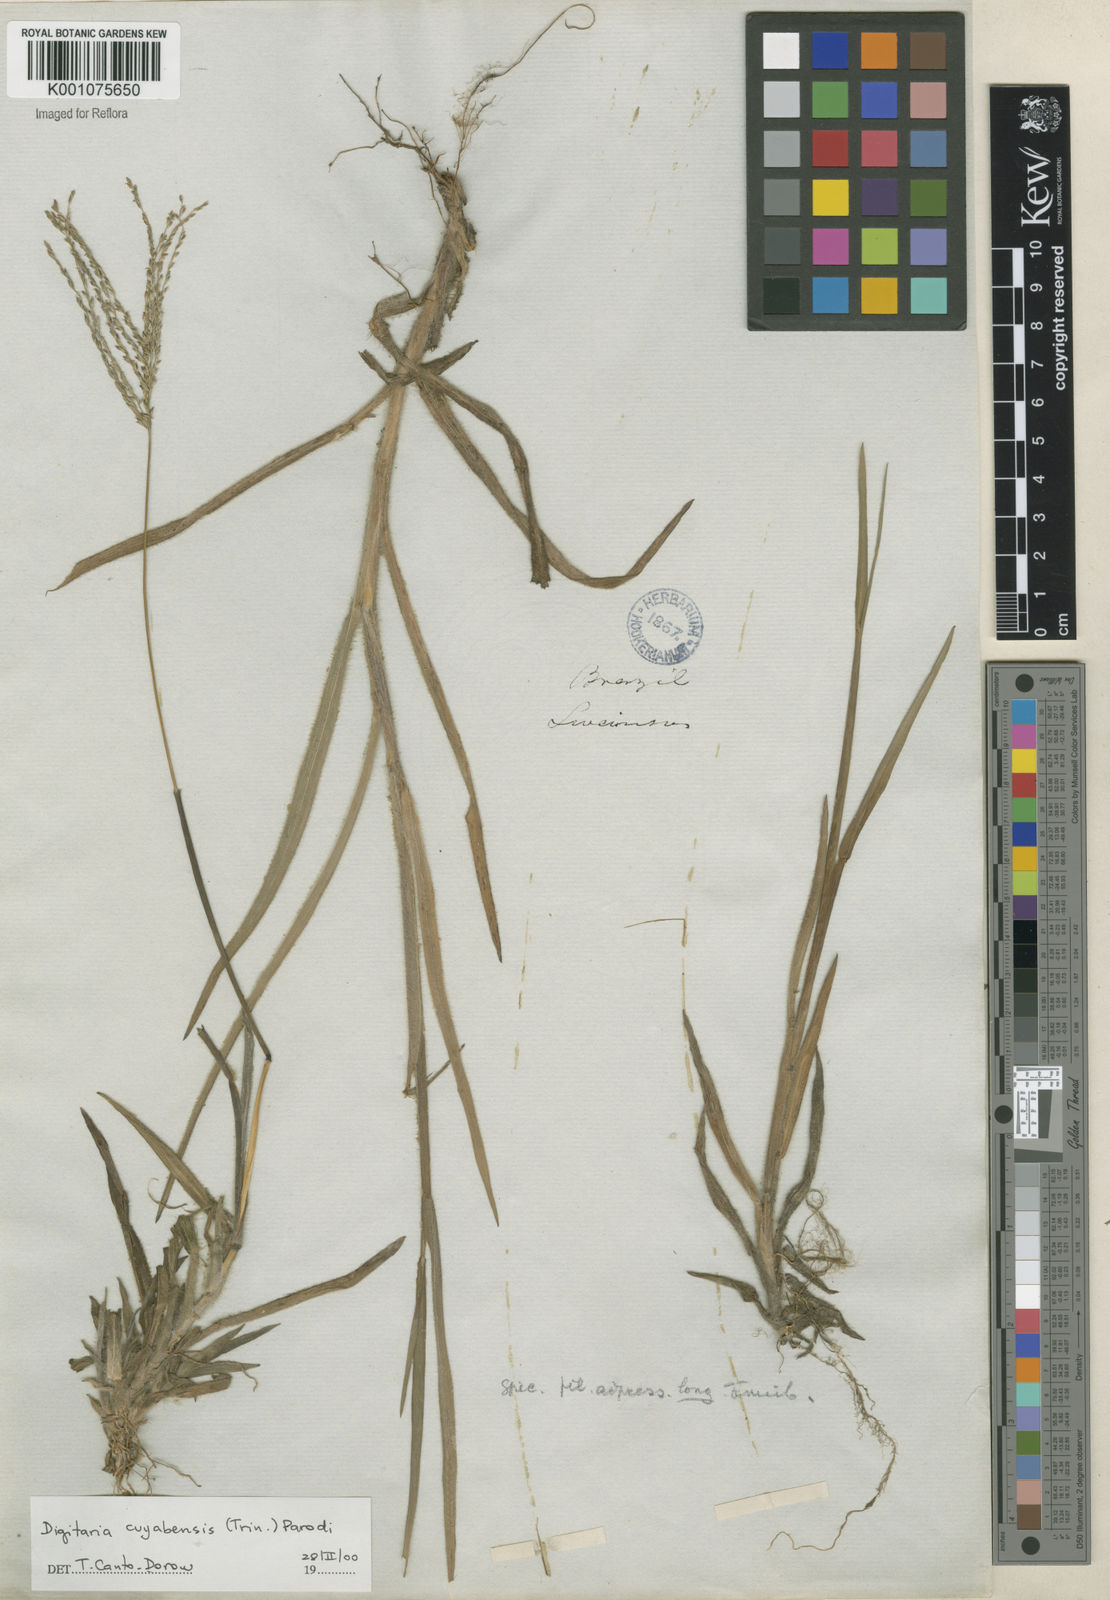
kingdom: Plantae
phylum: Tracheophyta
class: Liliopsida
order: Poales
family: Poaceae
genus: Digitaria
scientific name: Digitaria cuyabensis
